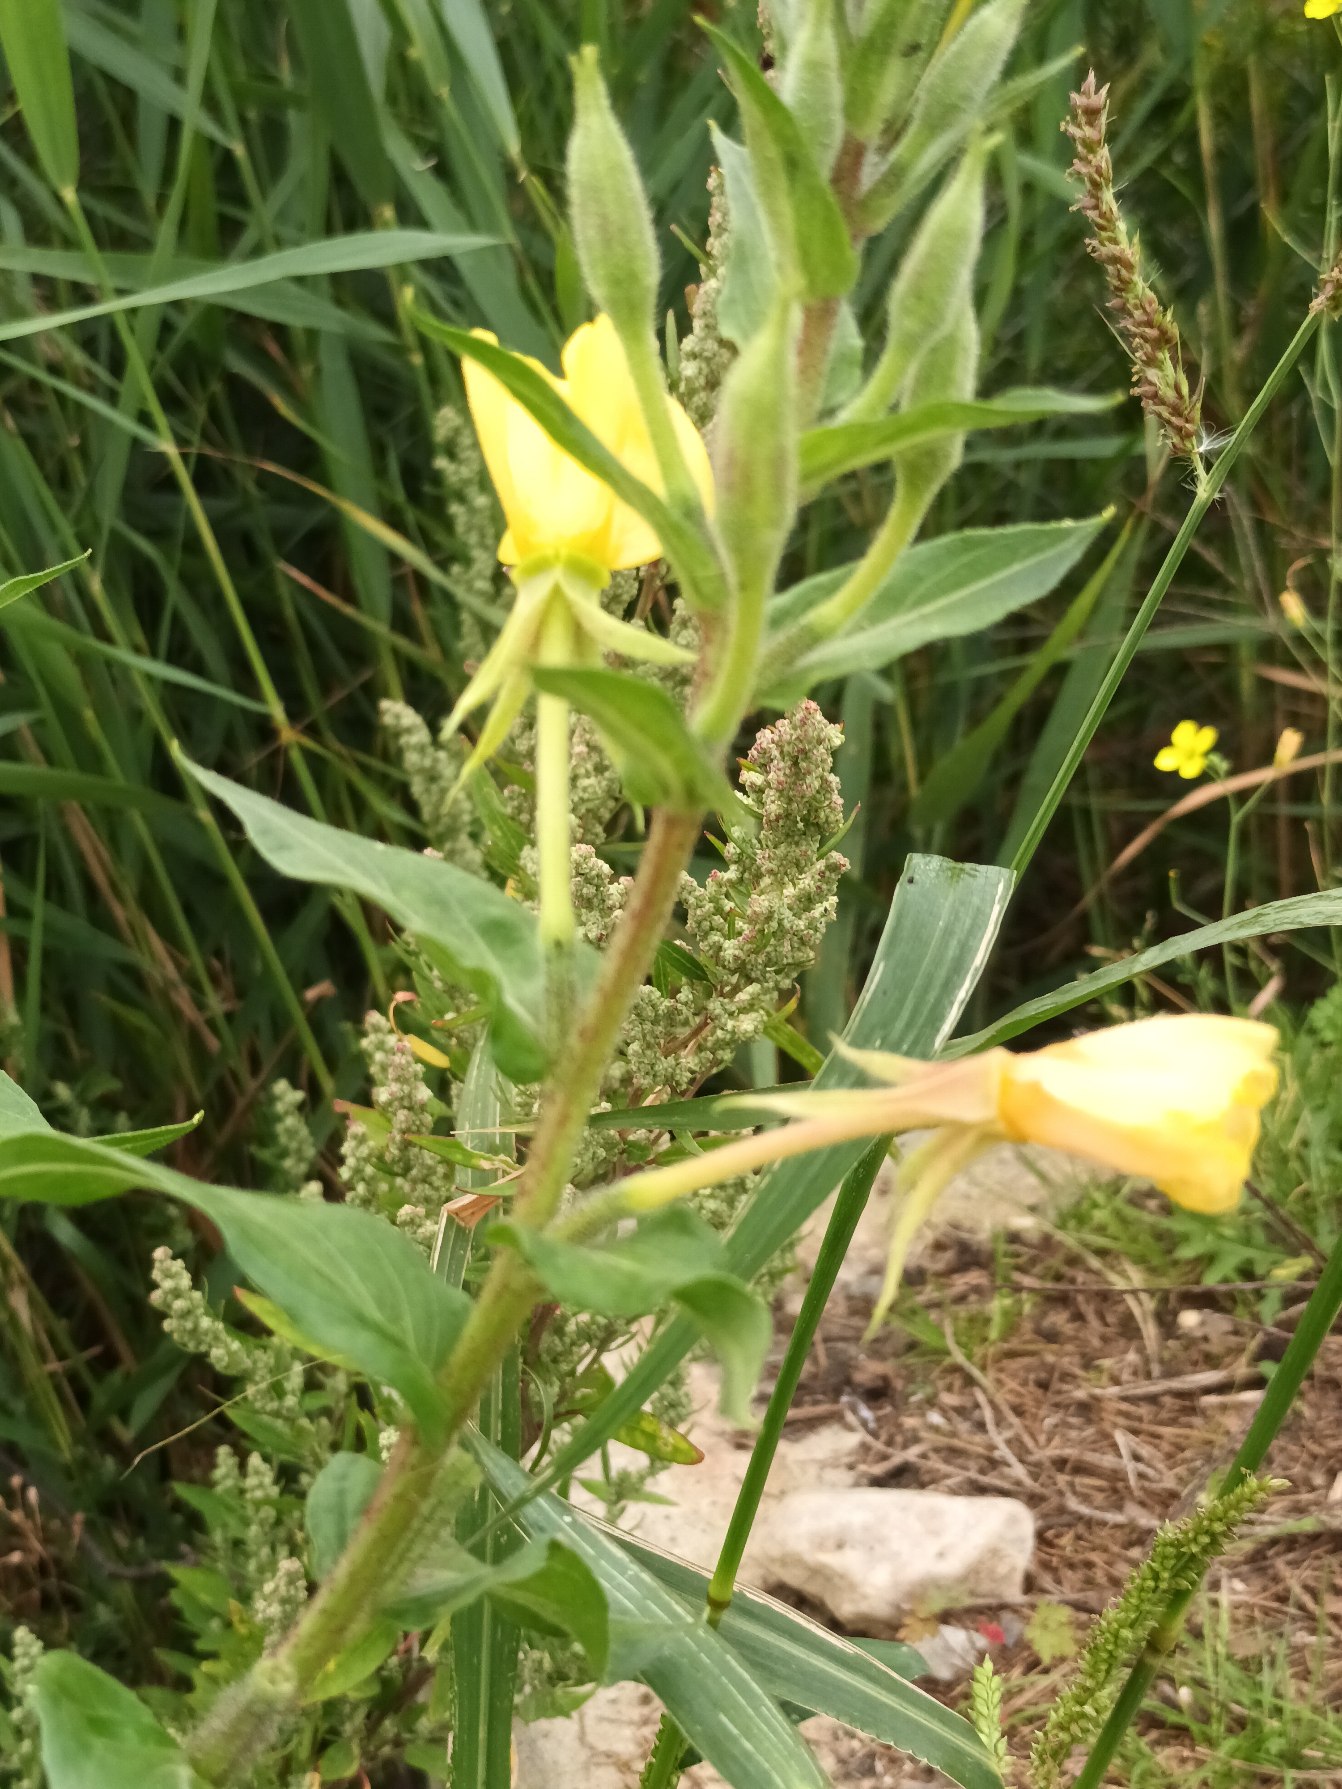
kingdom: Plantae
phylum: Tracheophyta
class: Magnoliopsida
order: Myrtales
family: Onagraceae
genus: Oenothera
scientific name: Oenothera fallax
